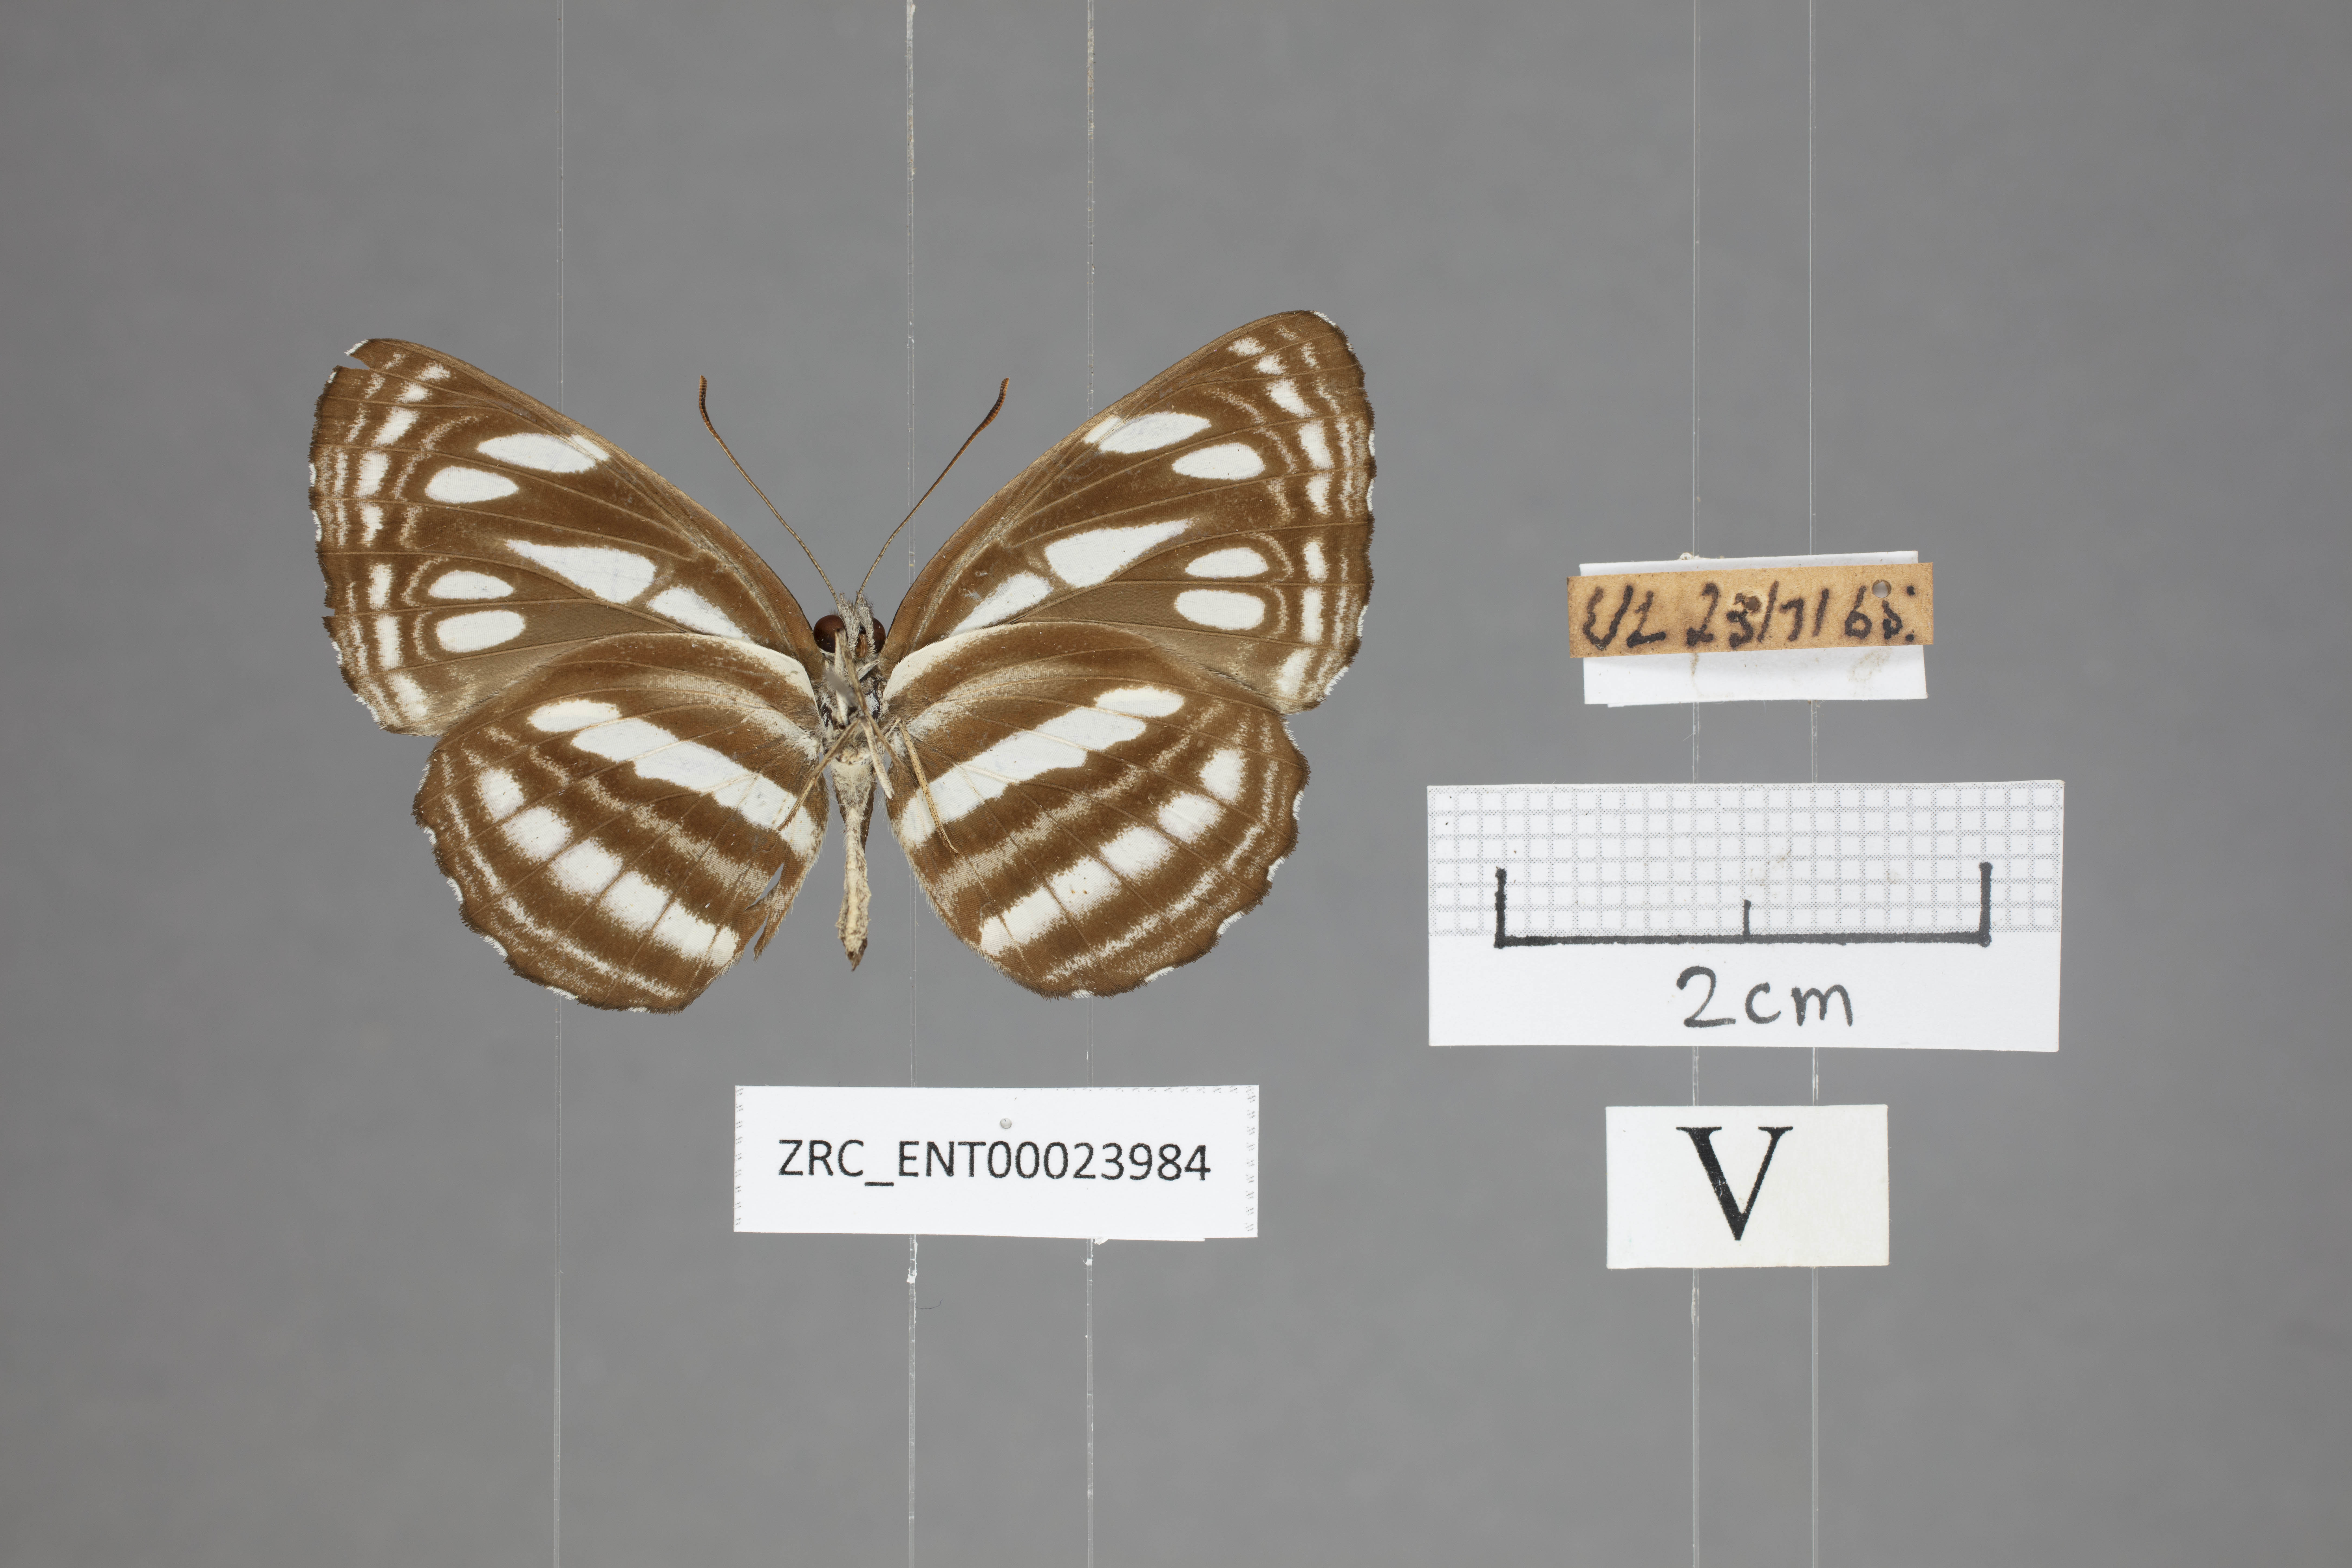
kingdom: Animalia
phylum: Arthropoda
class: Insecta
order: Lepidoptera
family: Nymphalidae
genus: Neptis
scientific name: Neptis duryodana
